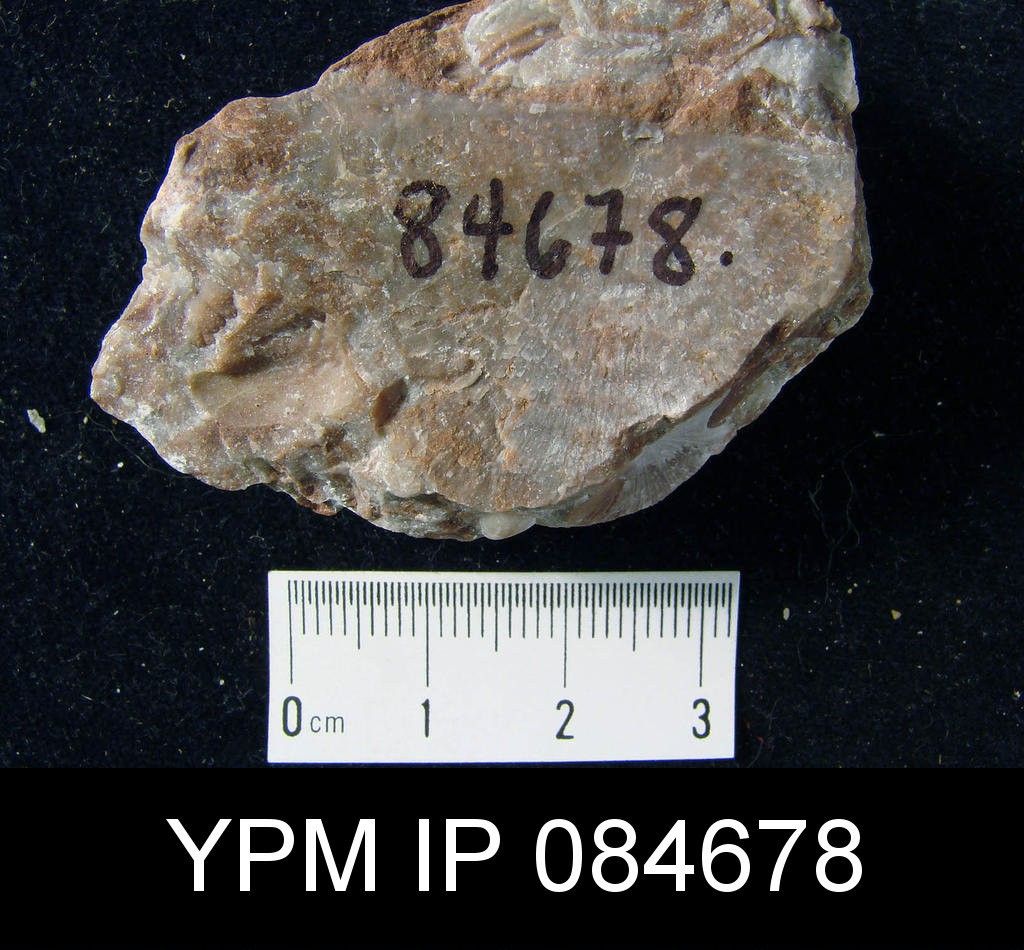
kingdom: Animalia
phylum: Brachiopoda
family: Stropheodontidae
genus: Leptostrophia
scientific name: Leptostrophia
